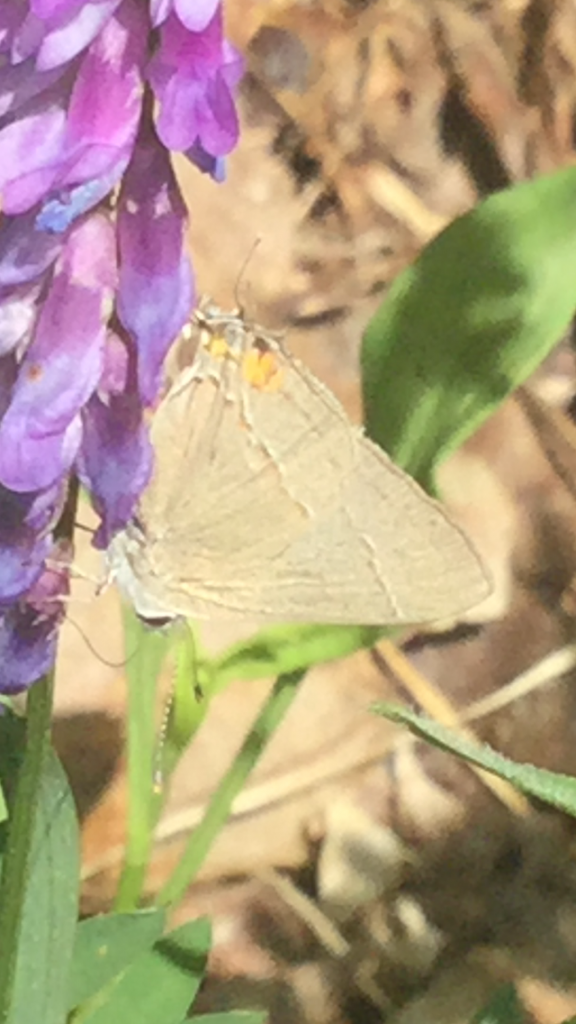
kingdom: Animalia
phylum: Arthropoda
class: Insecta
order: Lepidoptera
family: Lycaenidae
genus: Strymon
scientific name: Strymon melinus
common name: Gray Hairstreak
